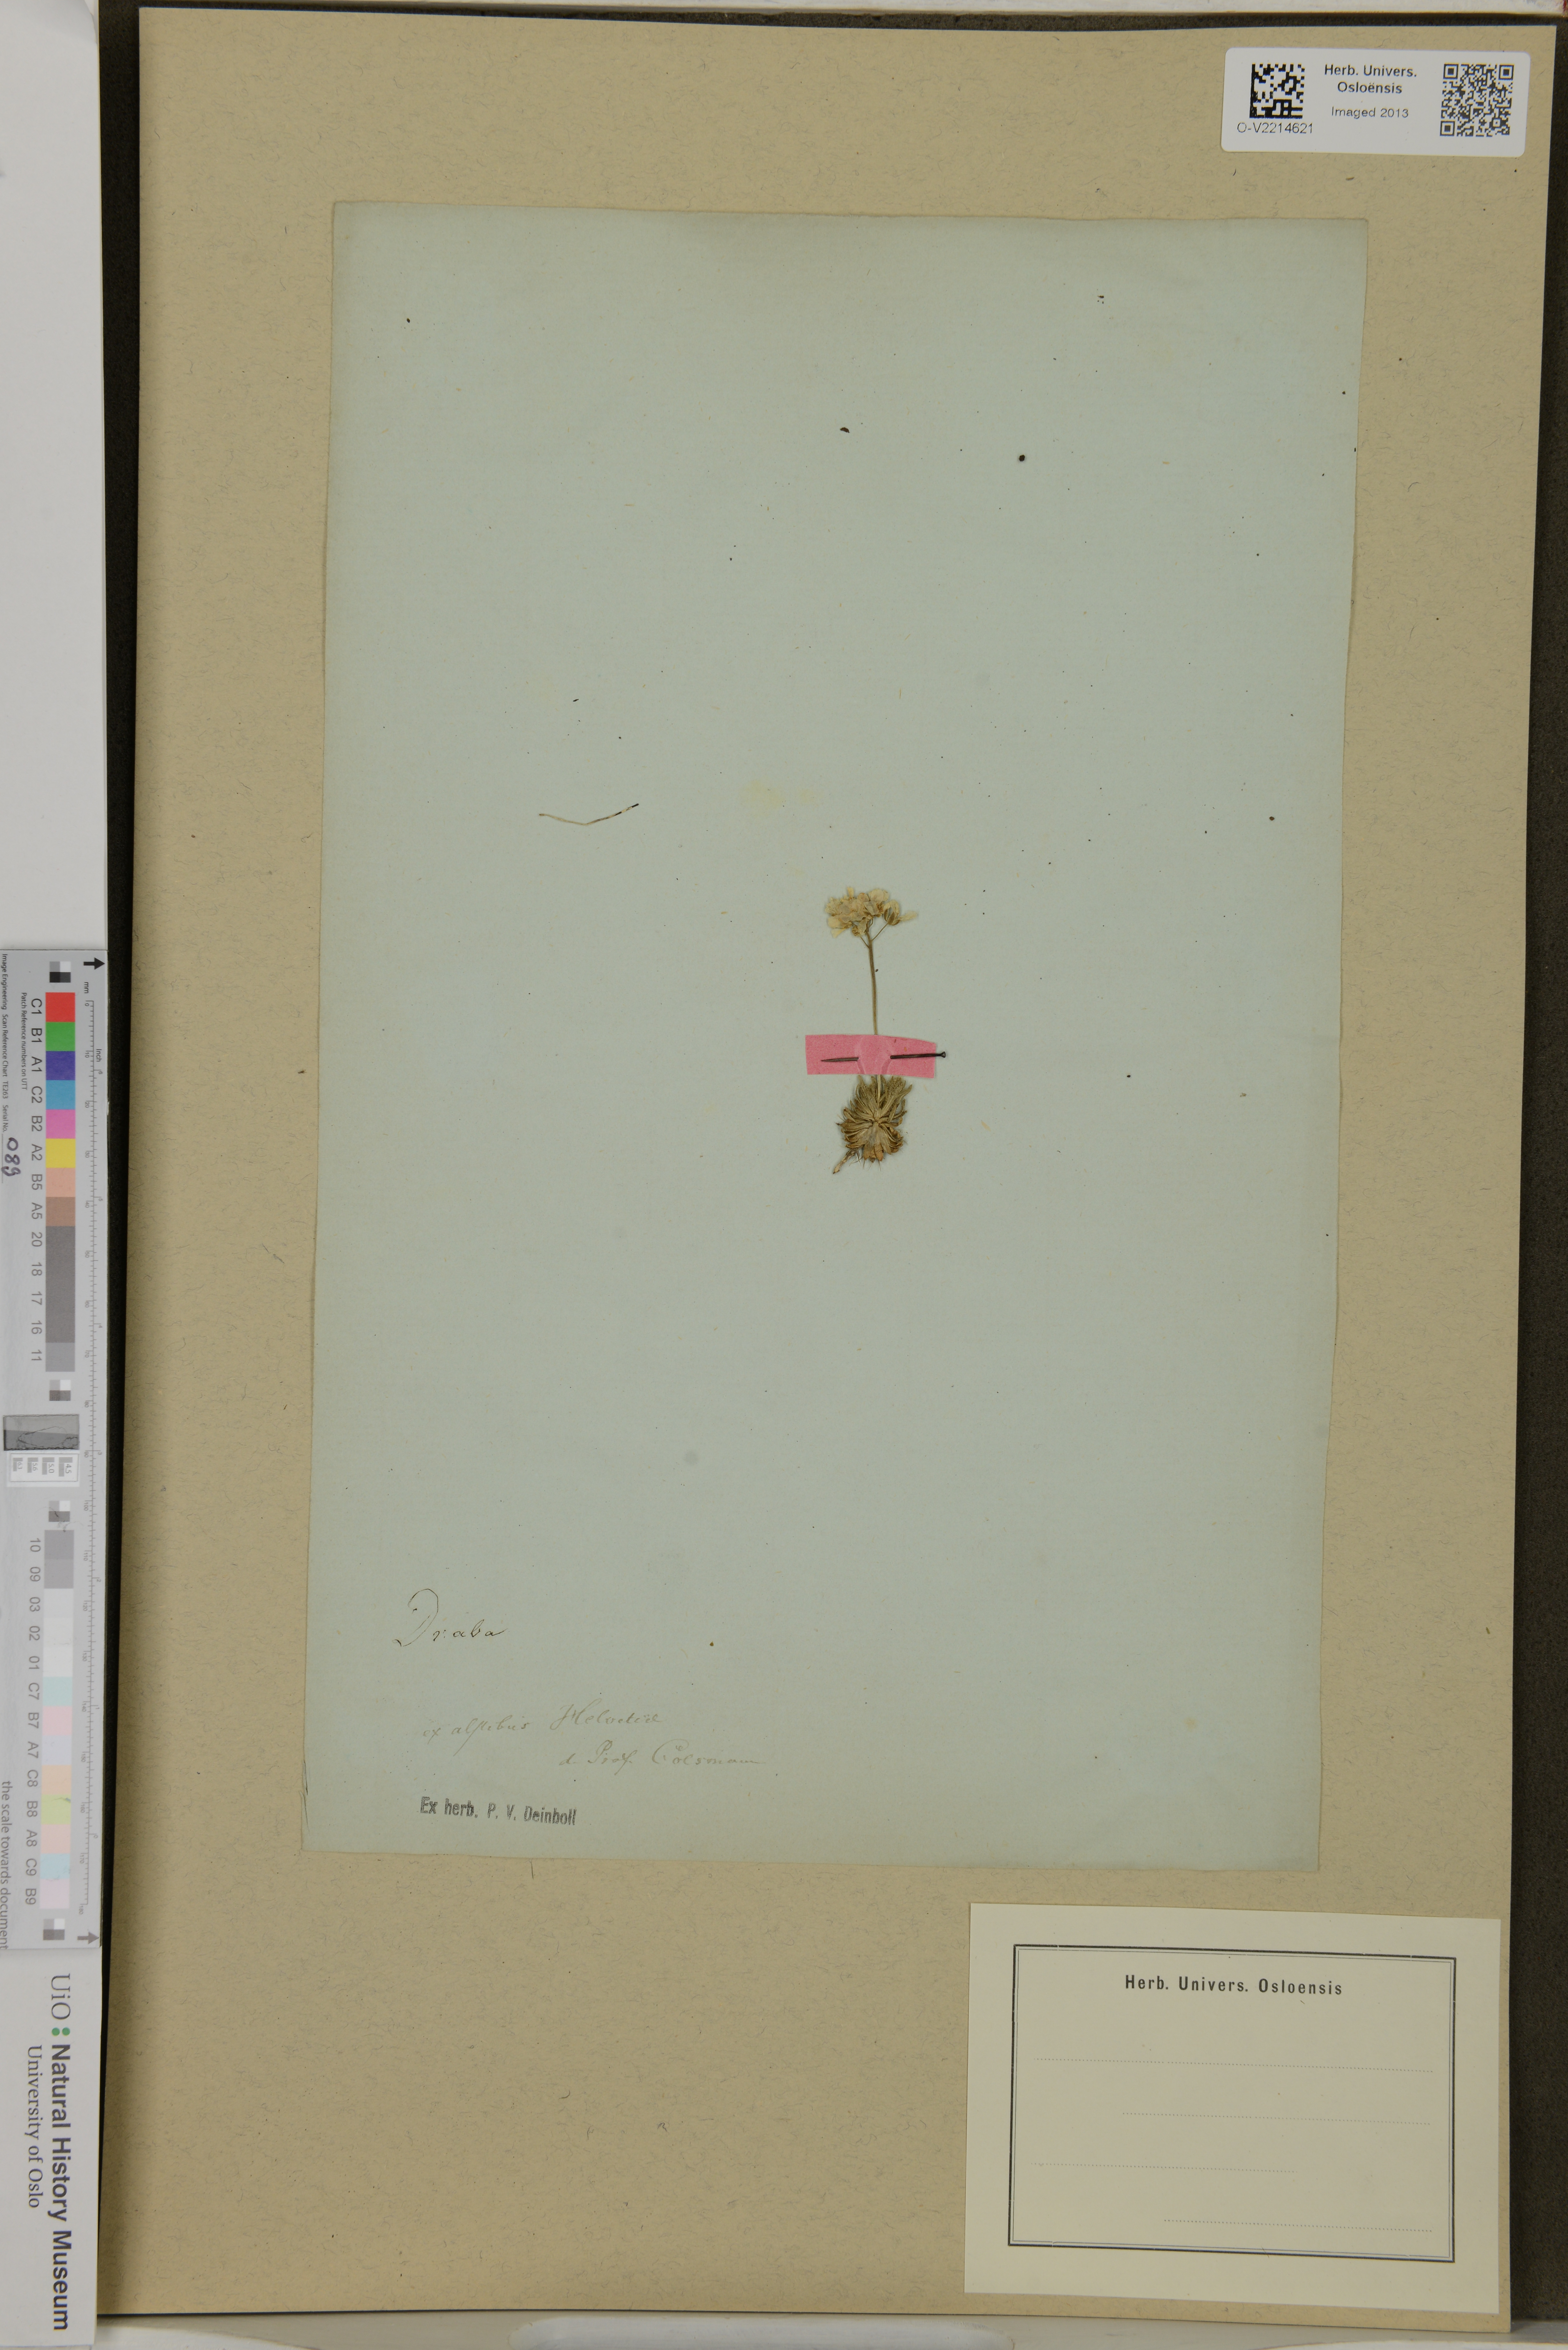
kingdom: Plantae
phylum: Tracheophyta
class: Magnoliopsida
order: Brassicales
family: Brassicaceae
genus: Draba
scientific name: Draba
